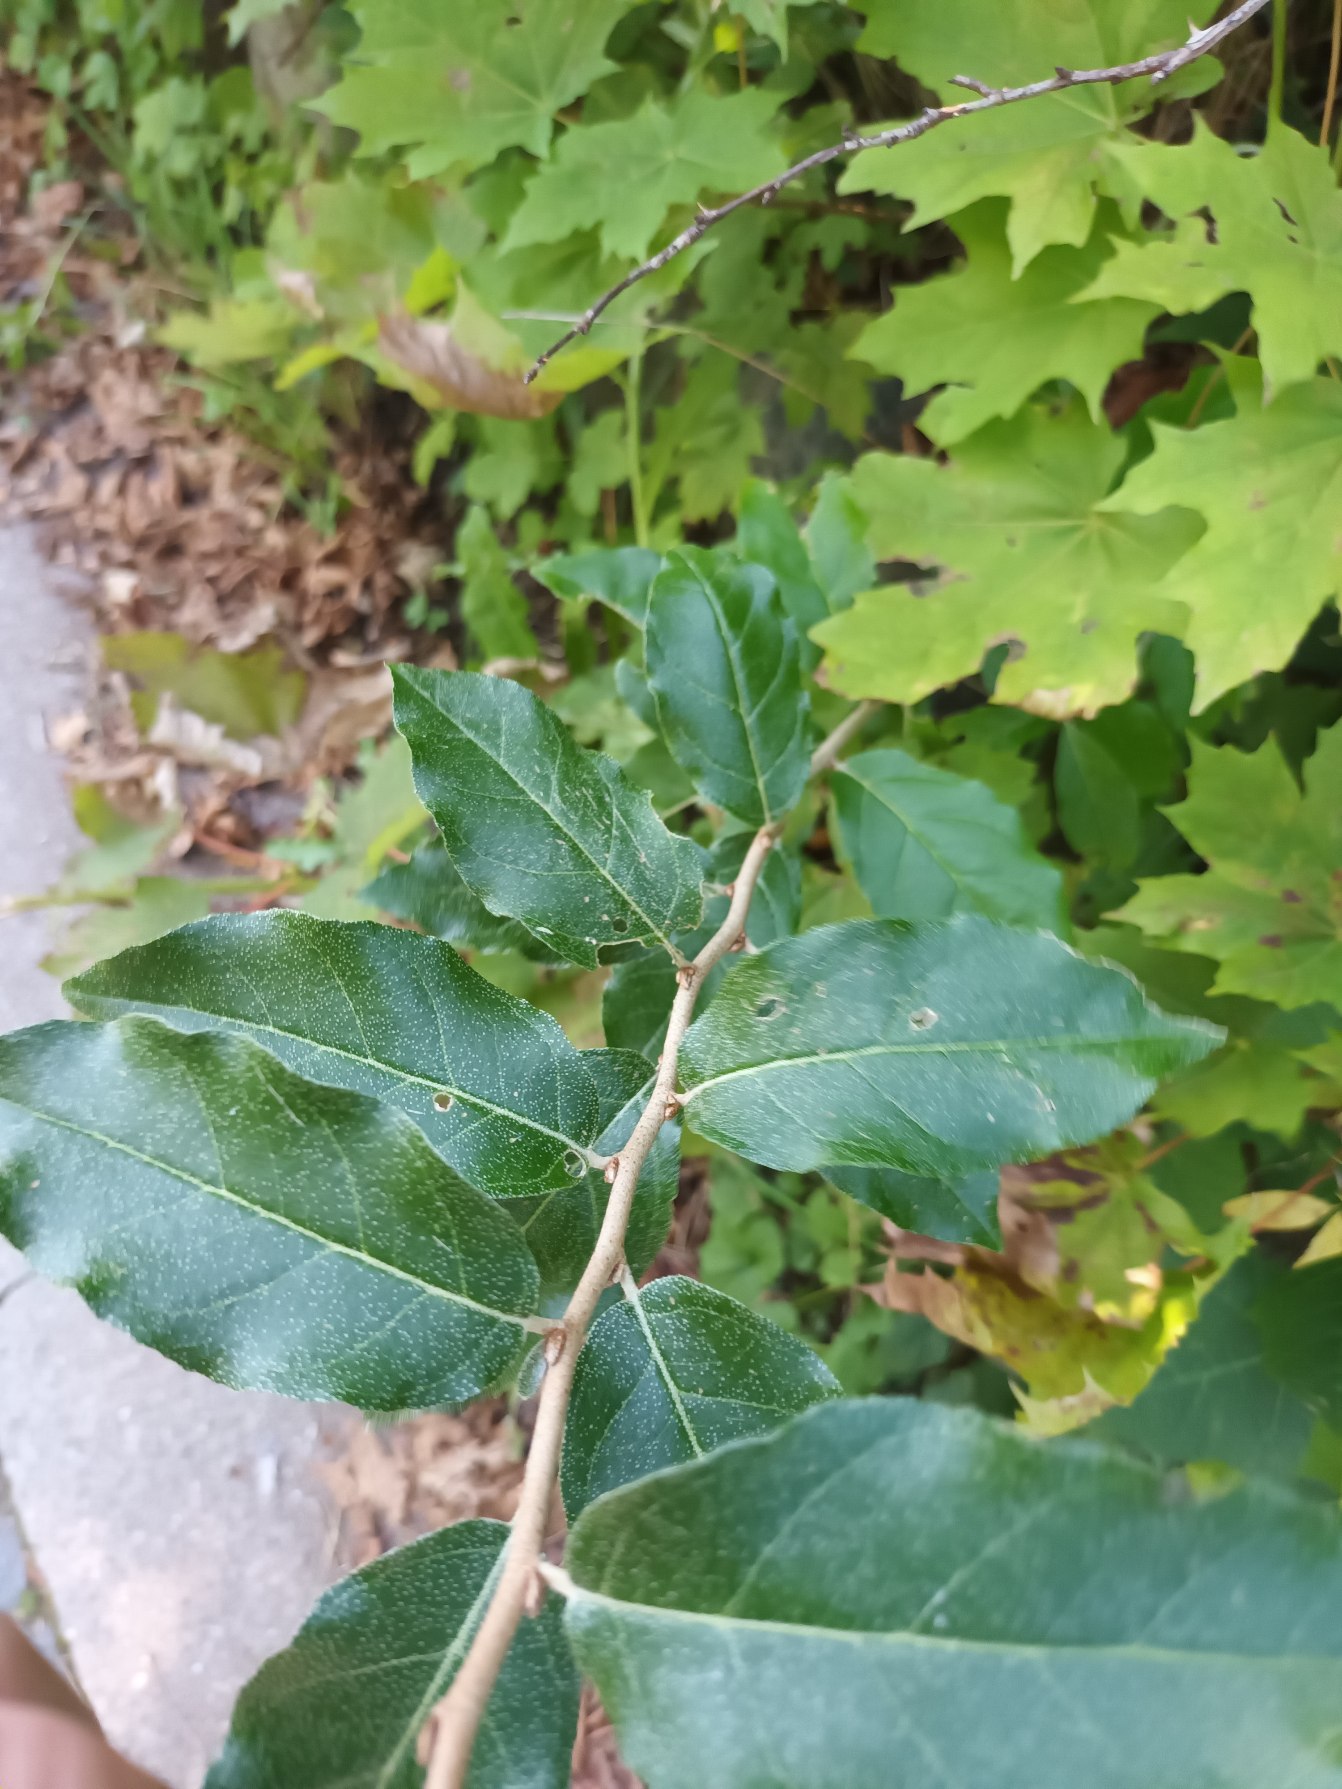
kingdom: Plantae
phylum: Tracheophyta
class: Magnoliopsida
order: Rosales
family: Elaeagnaceae
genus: Elaeagnus
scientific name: Elaeagnus submacrophylla
